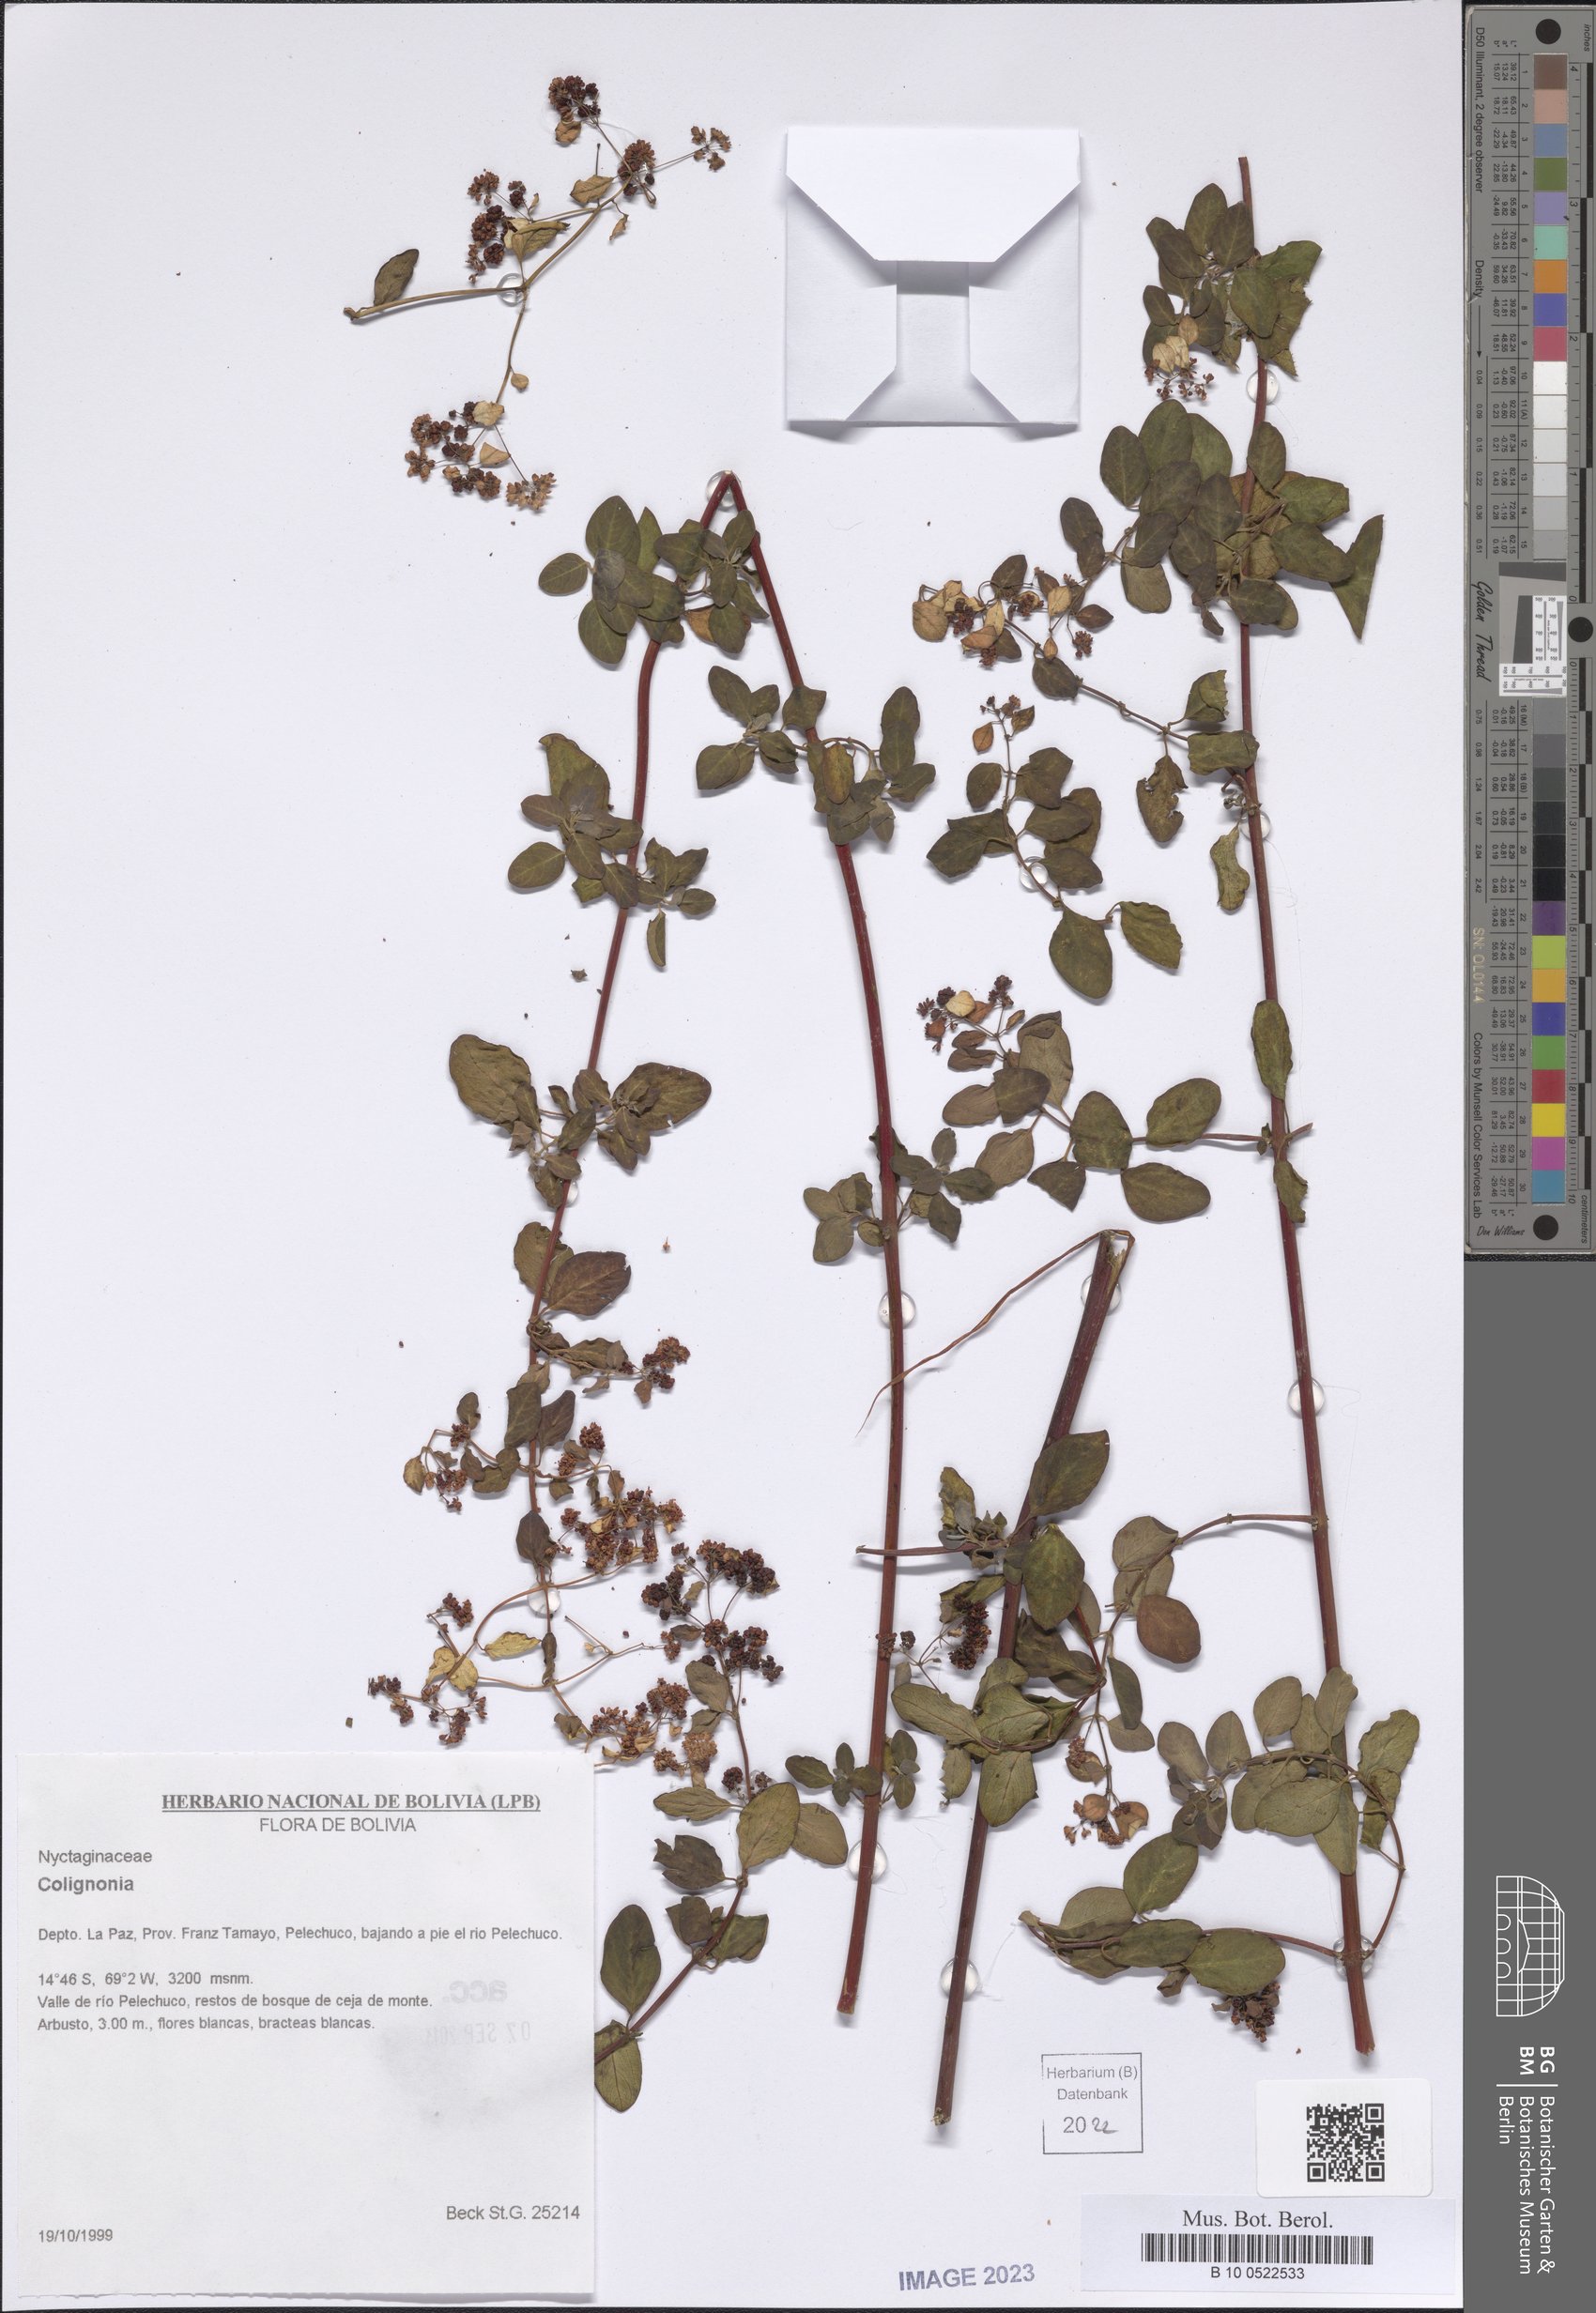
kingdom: Plantae
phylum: Tracheophyta
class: Magnoliopsida
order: Caryophyllales
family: Nyctaginaceae
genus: Colignonia
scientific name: Colignonia
